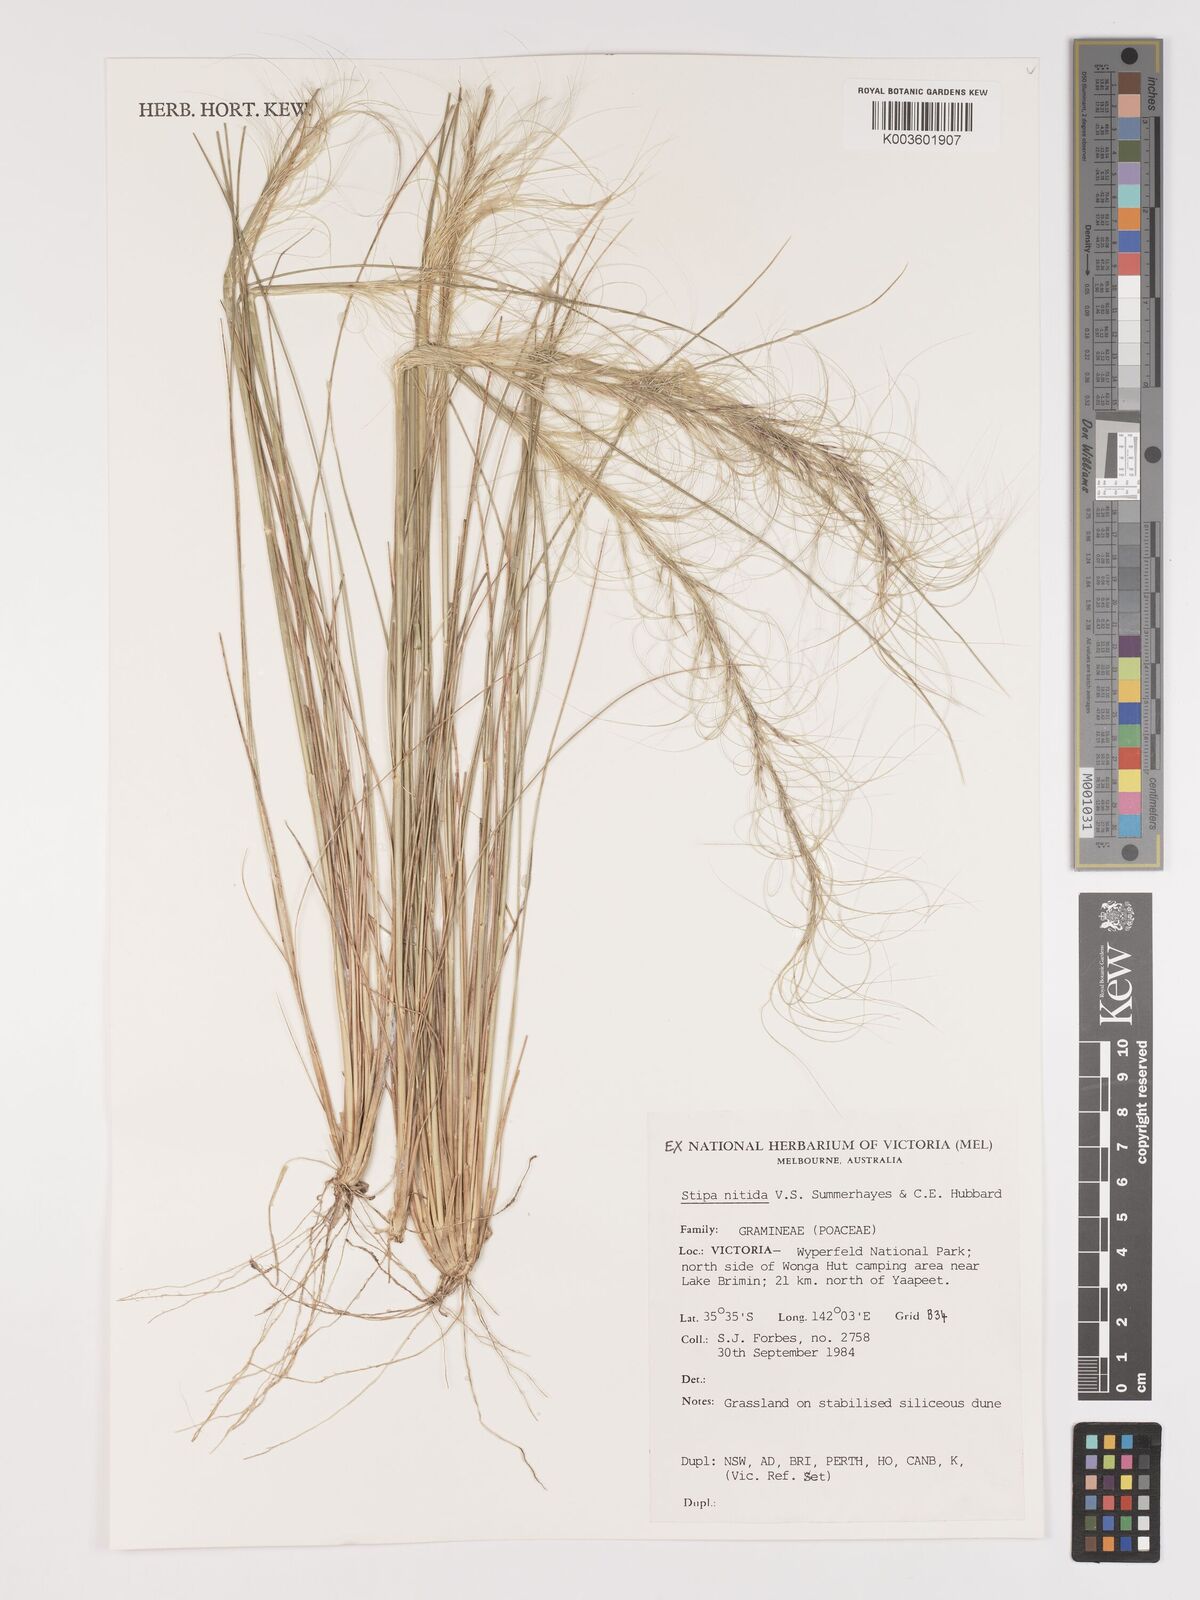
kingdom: Plantae
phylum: Tracheophyta
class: Liliopsida
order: Poales
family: Poaceae
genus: Austrostipa
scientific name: Austrostipa nitida
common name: Balcarra grass
